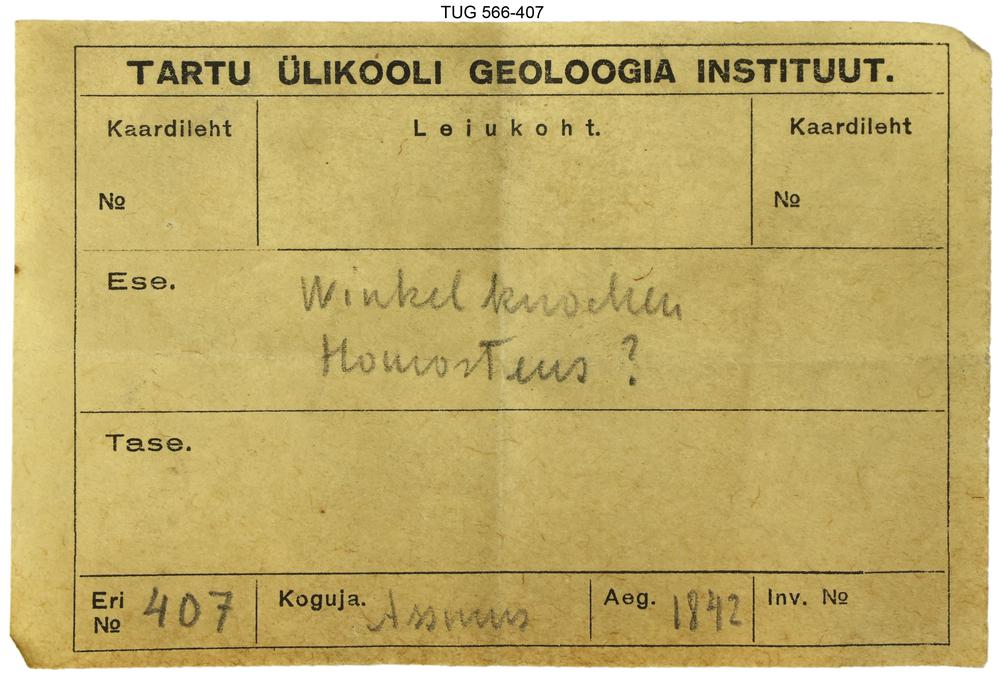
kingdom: Animalia
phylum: Chordata
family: Homostiidae
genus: Homostius
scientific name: Homostius
